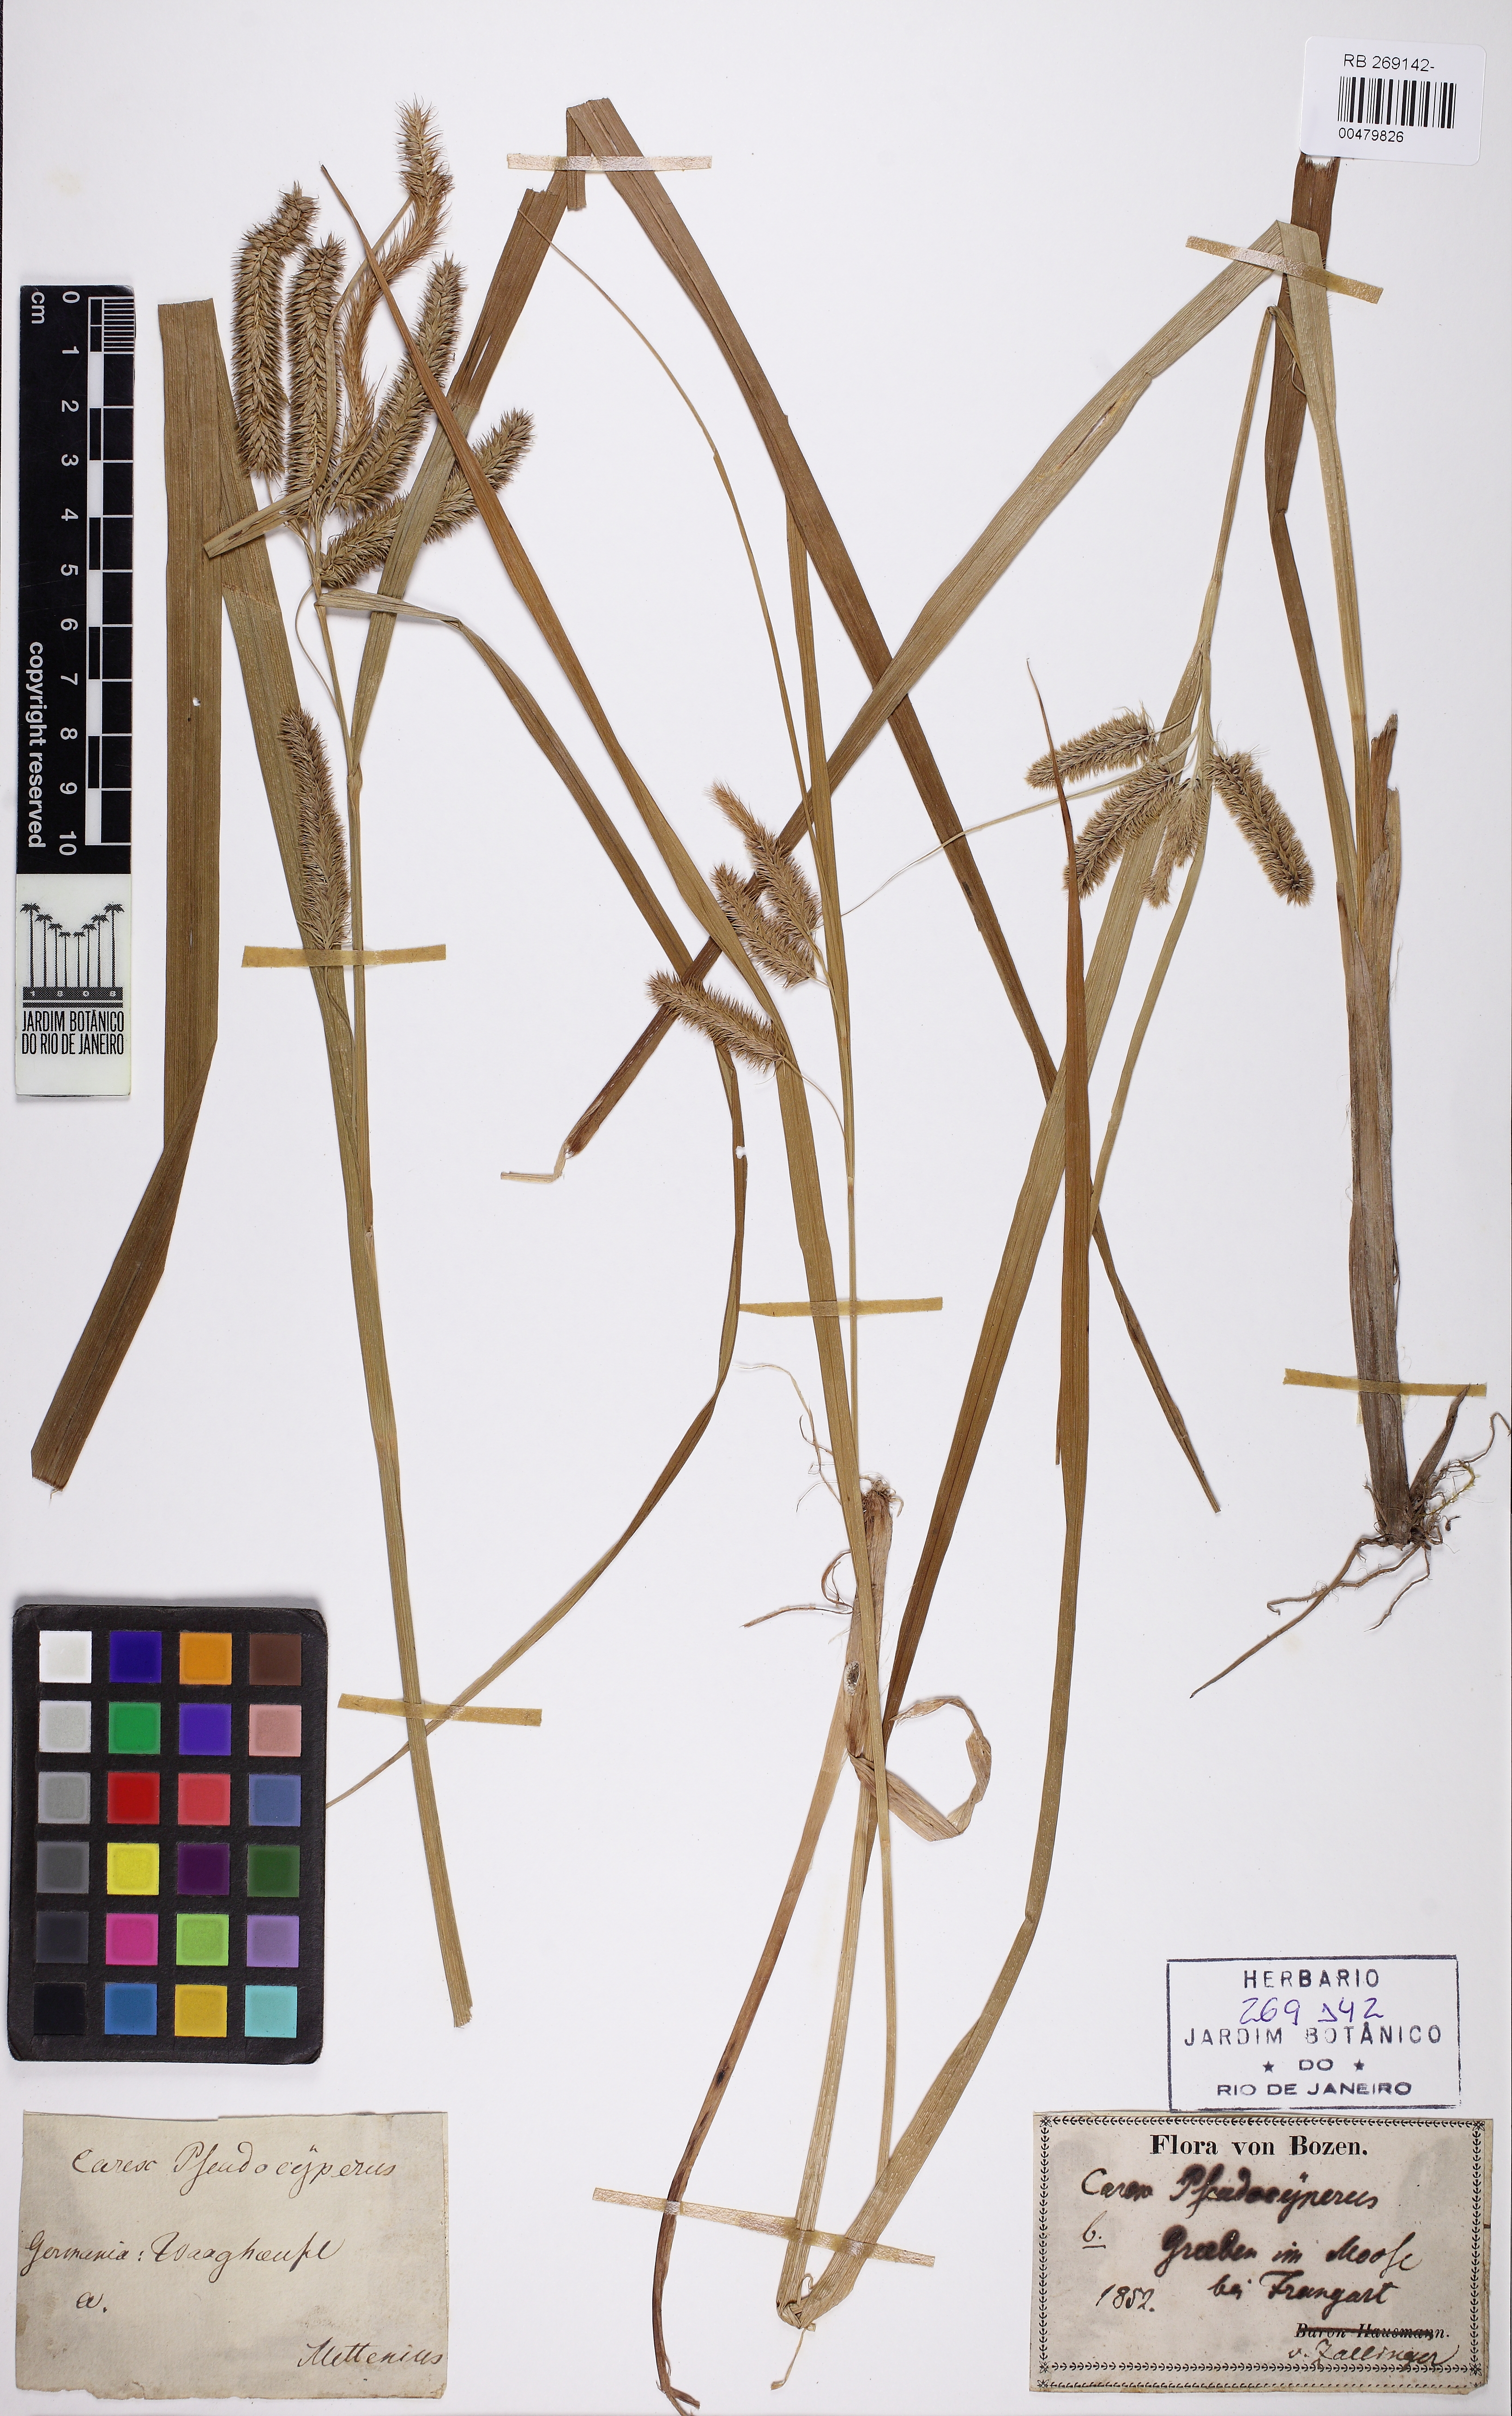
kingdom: Plantae
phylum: Tracheophyta
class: Liliopsida
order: Poales
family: Cyperaceae
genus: Carex
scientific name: Carex pseudocyperus
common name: Cyperus sedge
